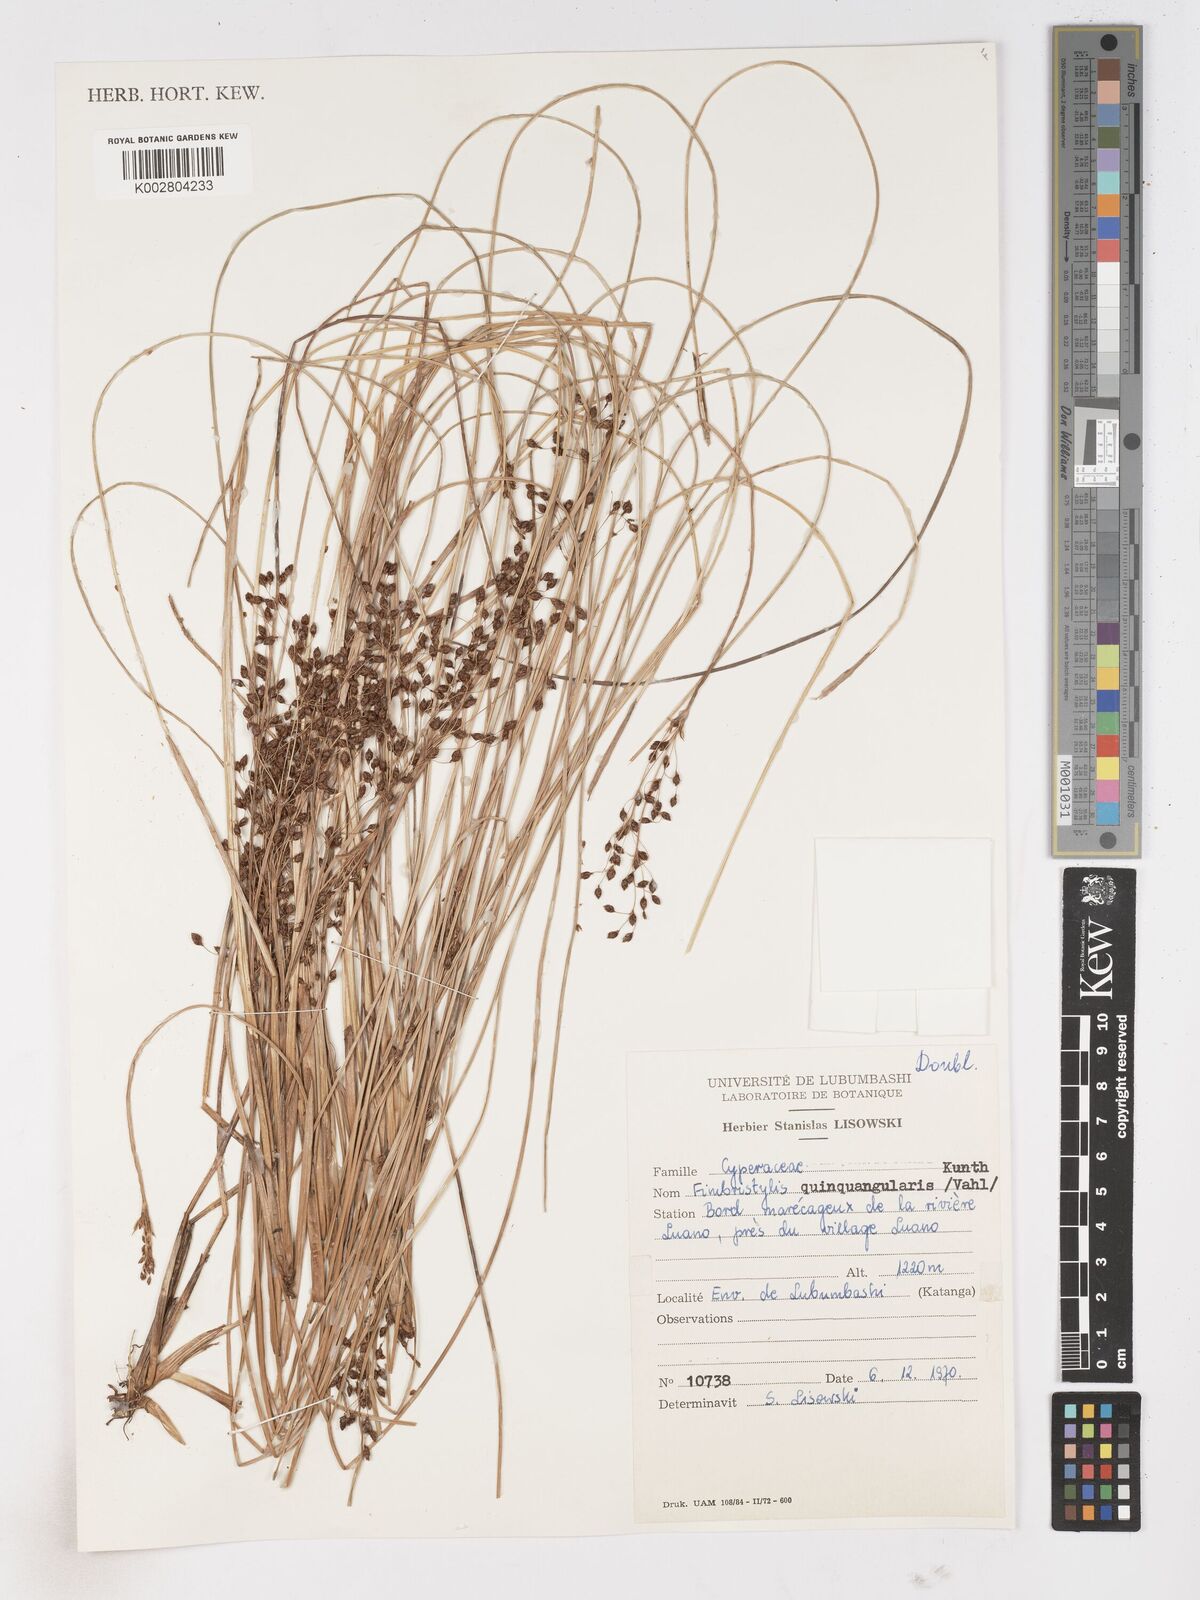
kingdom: Plantae
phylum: Tracheophyta
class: Liliopsida
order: Poales
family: Cyperaceae
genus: Fimbristylis
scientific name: Fimbristylis quinquangularis
